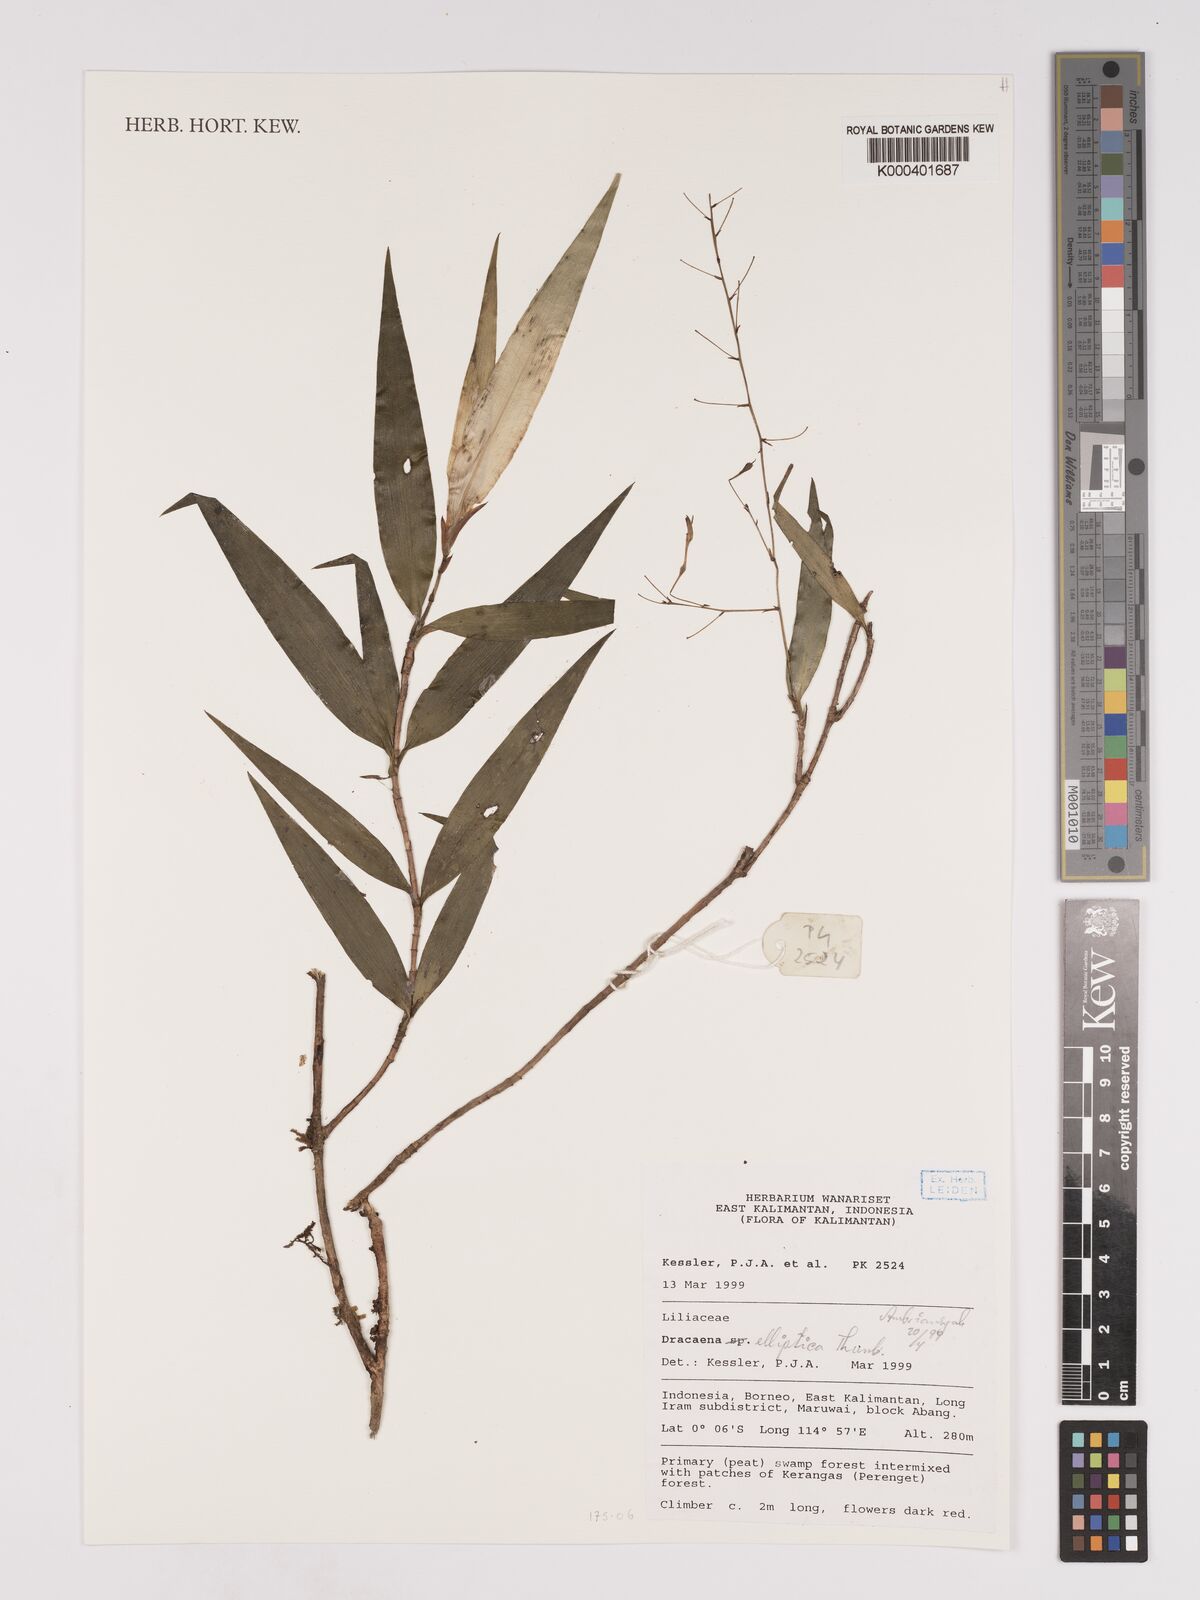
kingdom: Plantae
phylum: Tracheophyta
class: Liliopsida
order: Asparagales
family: Asparagaceae
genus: Dracaena
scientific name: Dracaena elliptica
